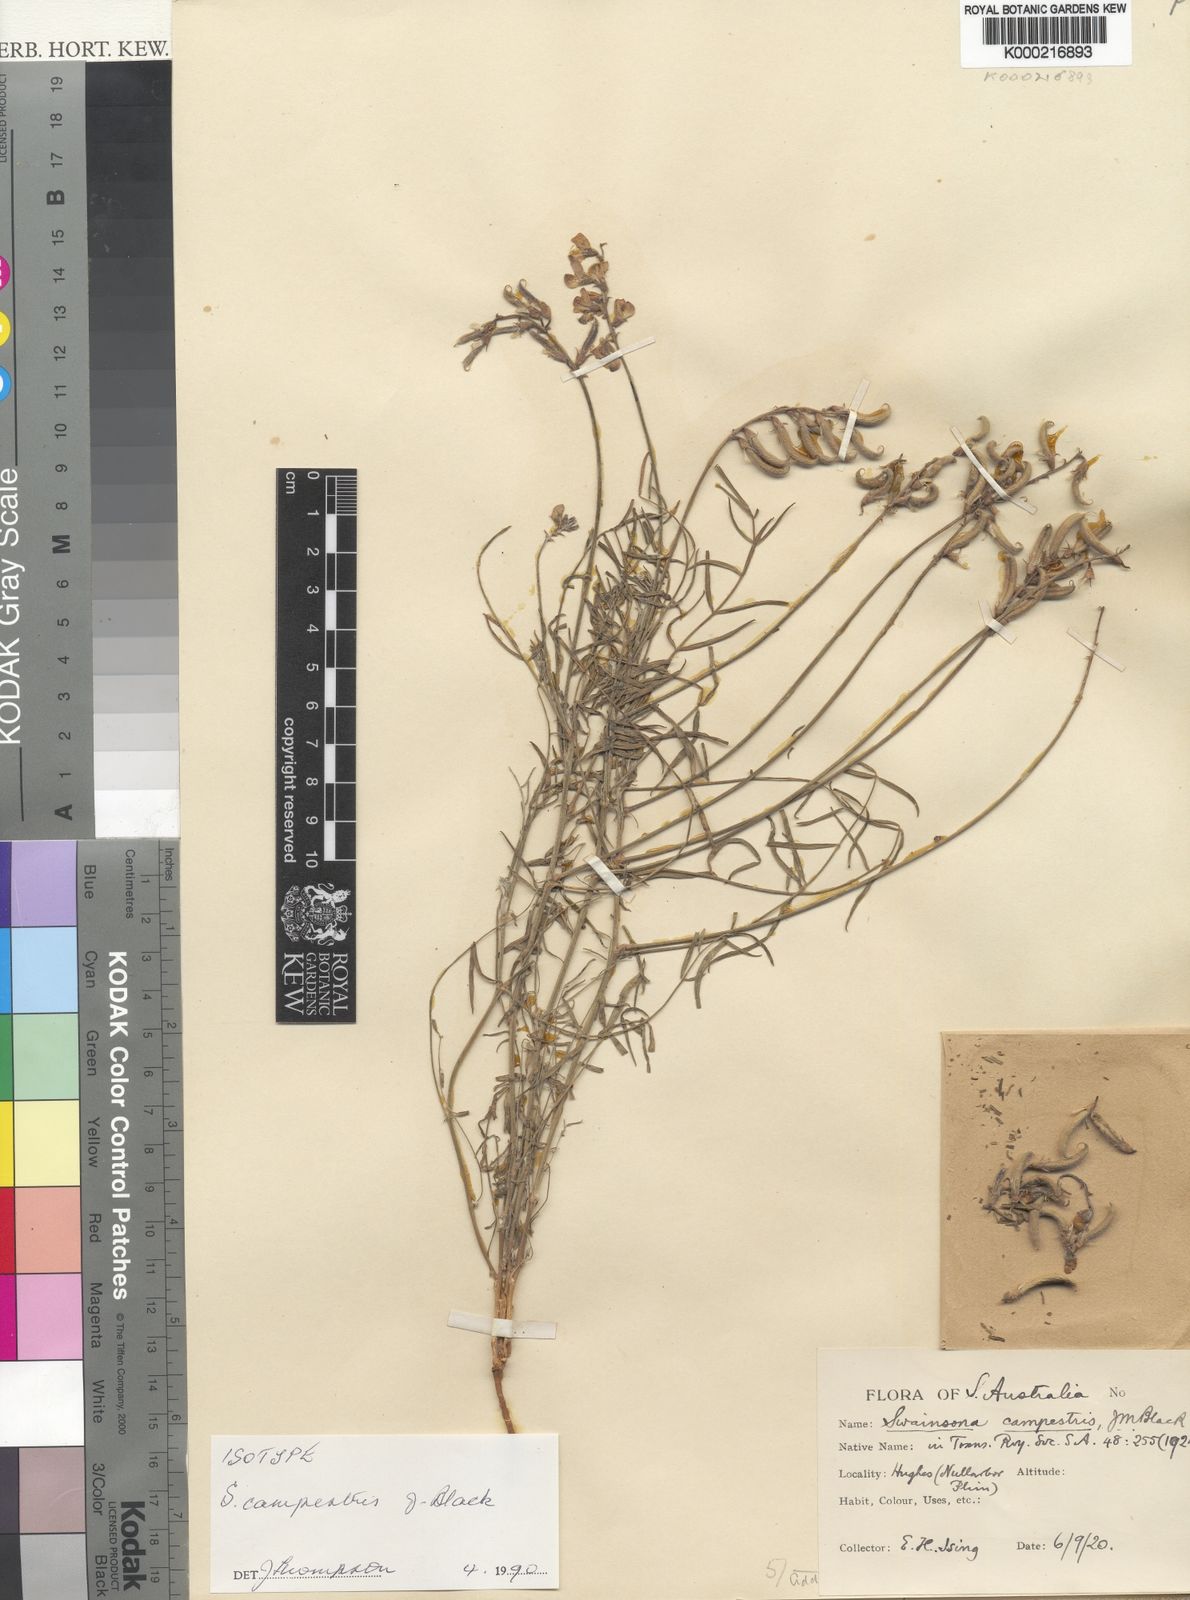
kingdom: Plantae
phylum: Tracheophyta
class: Magnoliopsida
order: Fabales
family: Fabaceae
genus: Swainsona
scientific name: Swainsona campestris
